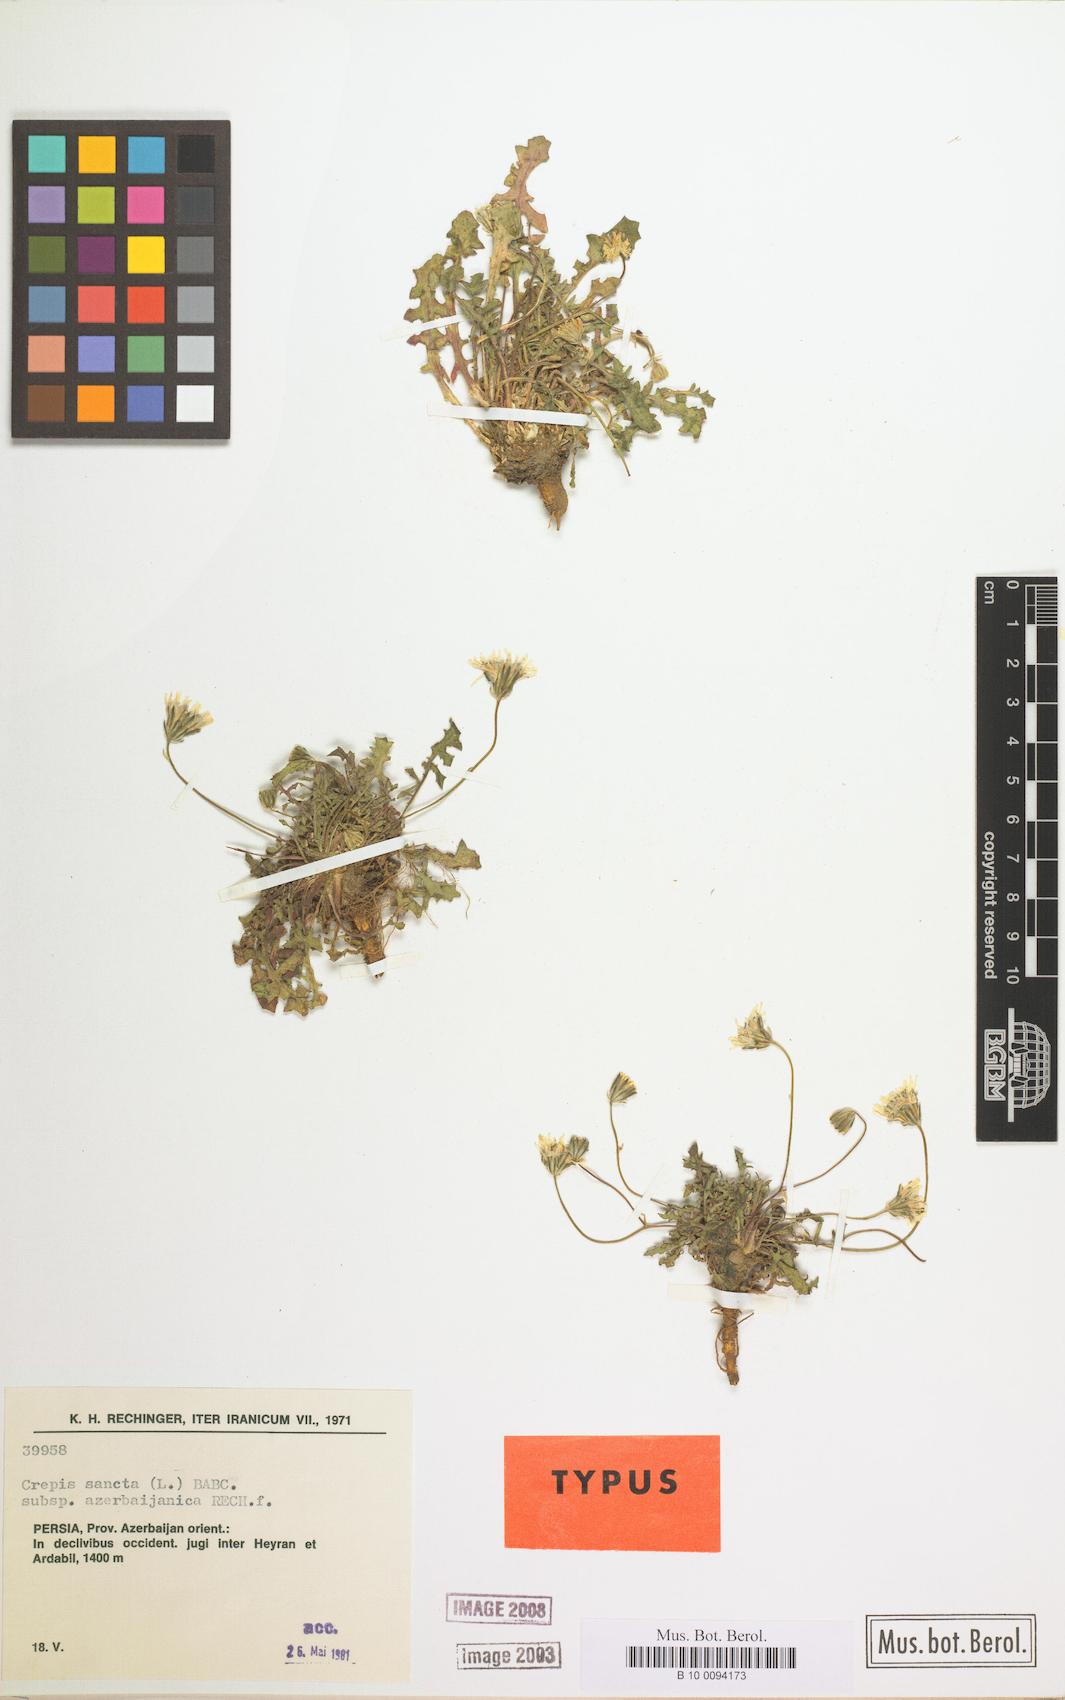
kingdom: Plantae
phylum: Tracheophyta
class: Magnoliopsida
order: Asterales
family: Asteraceae
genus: Crepis
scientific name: Crepis sancta
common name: Hawk's-beard
